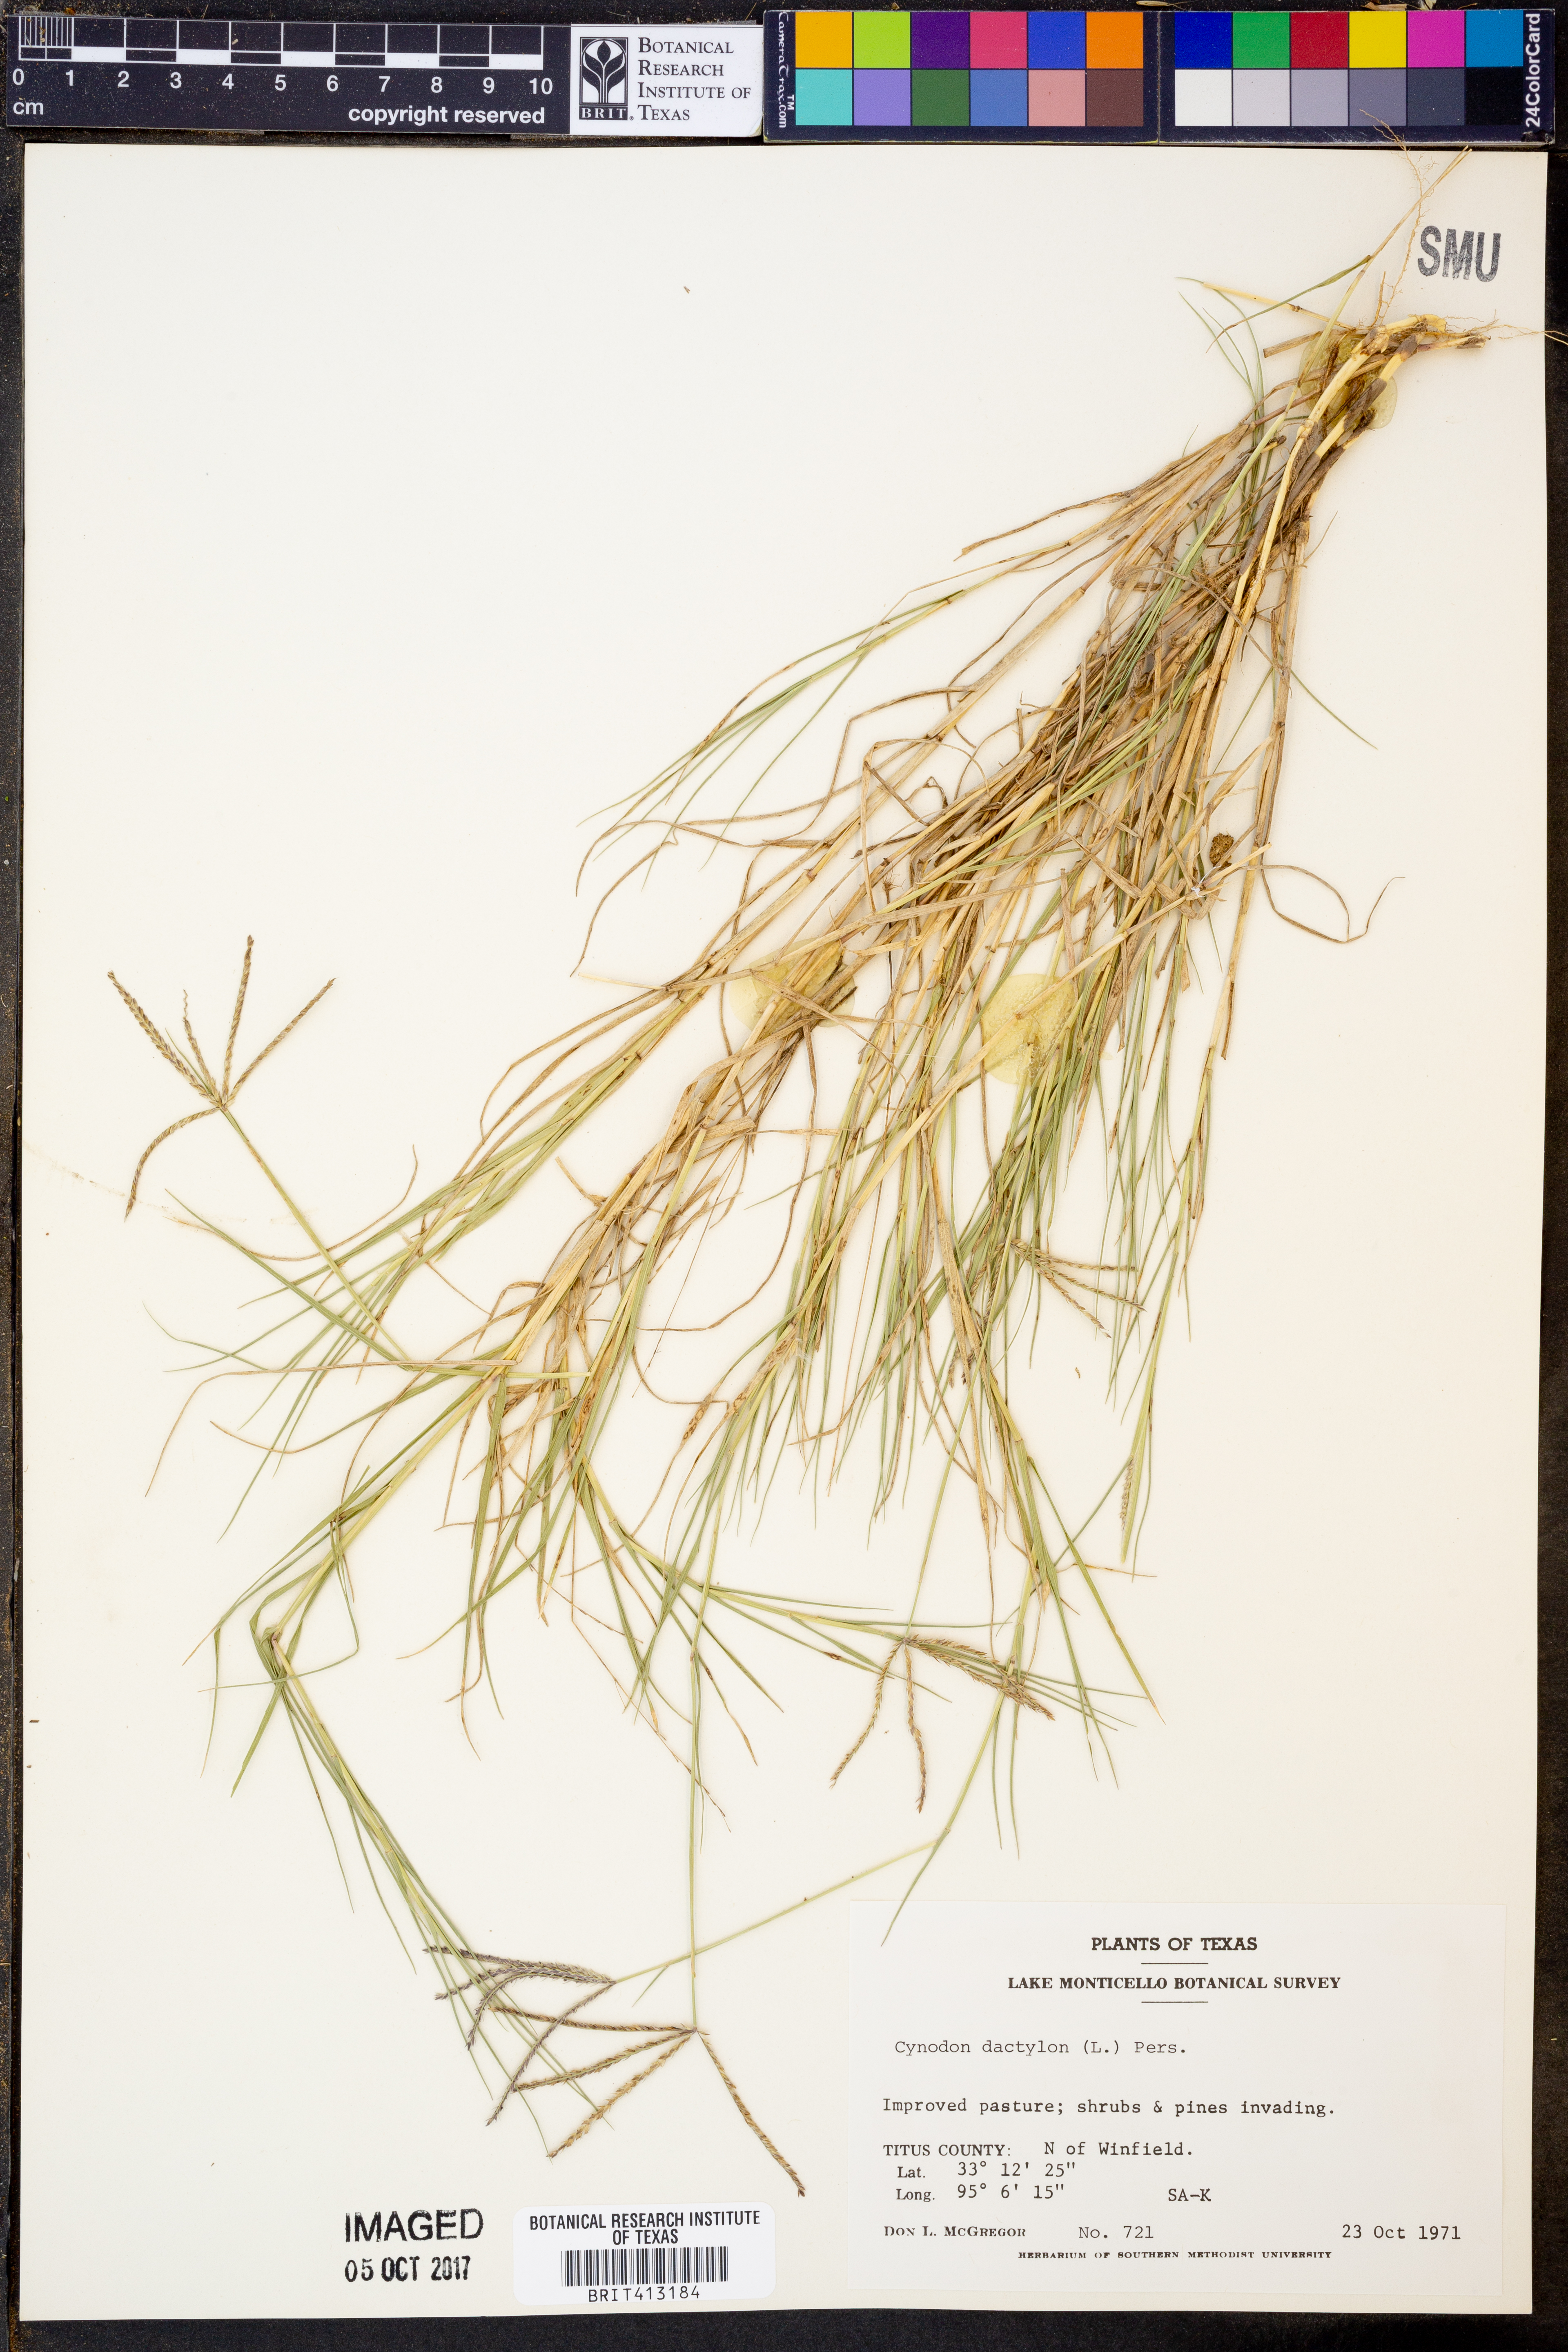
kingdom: Plantae
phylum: Tracheophyta
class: Liliopsida
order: Poales
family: Poaceae
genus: Cynodon
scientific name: Cynodon dactylon
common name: Bermuda grass
